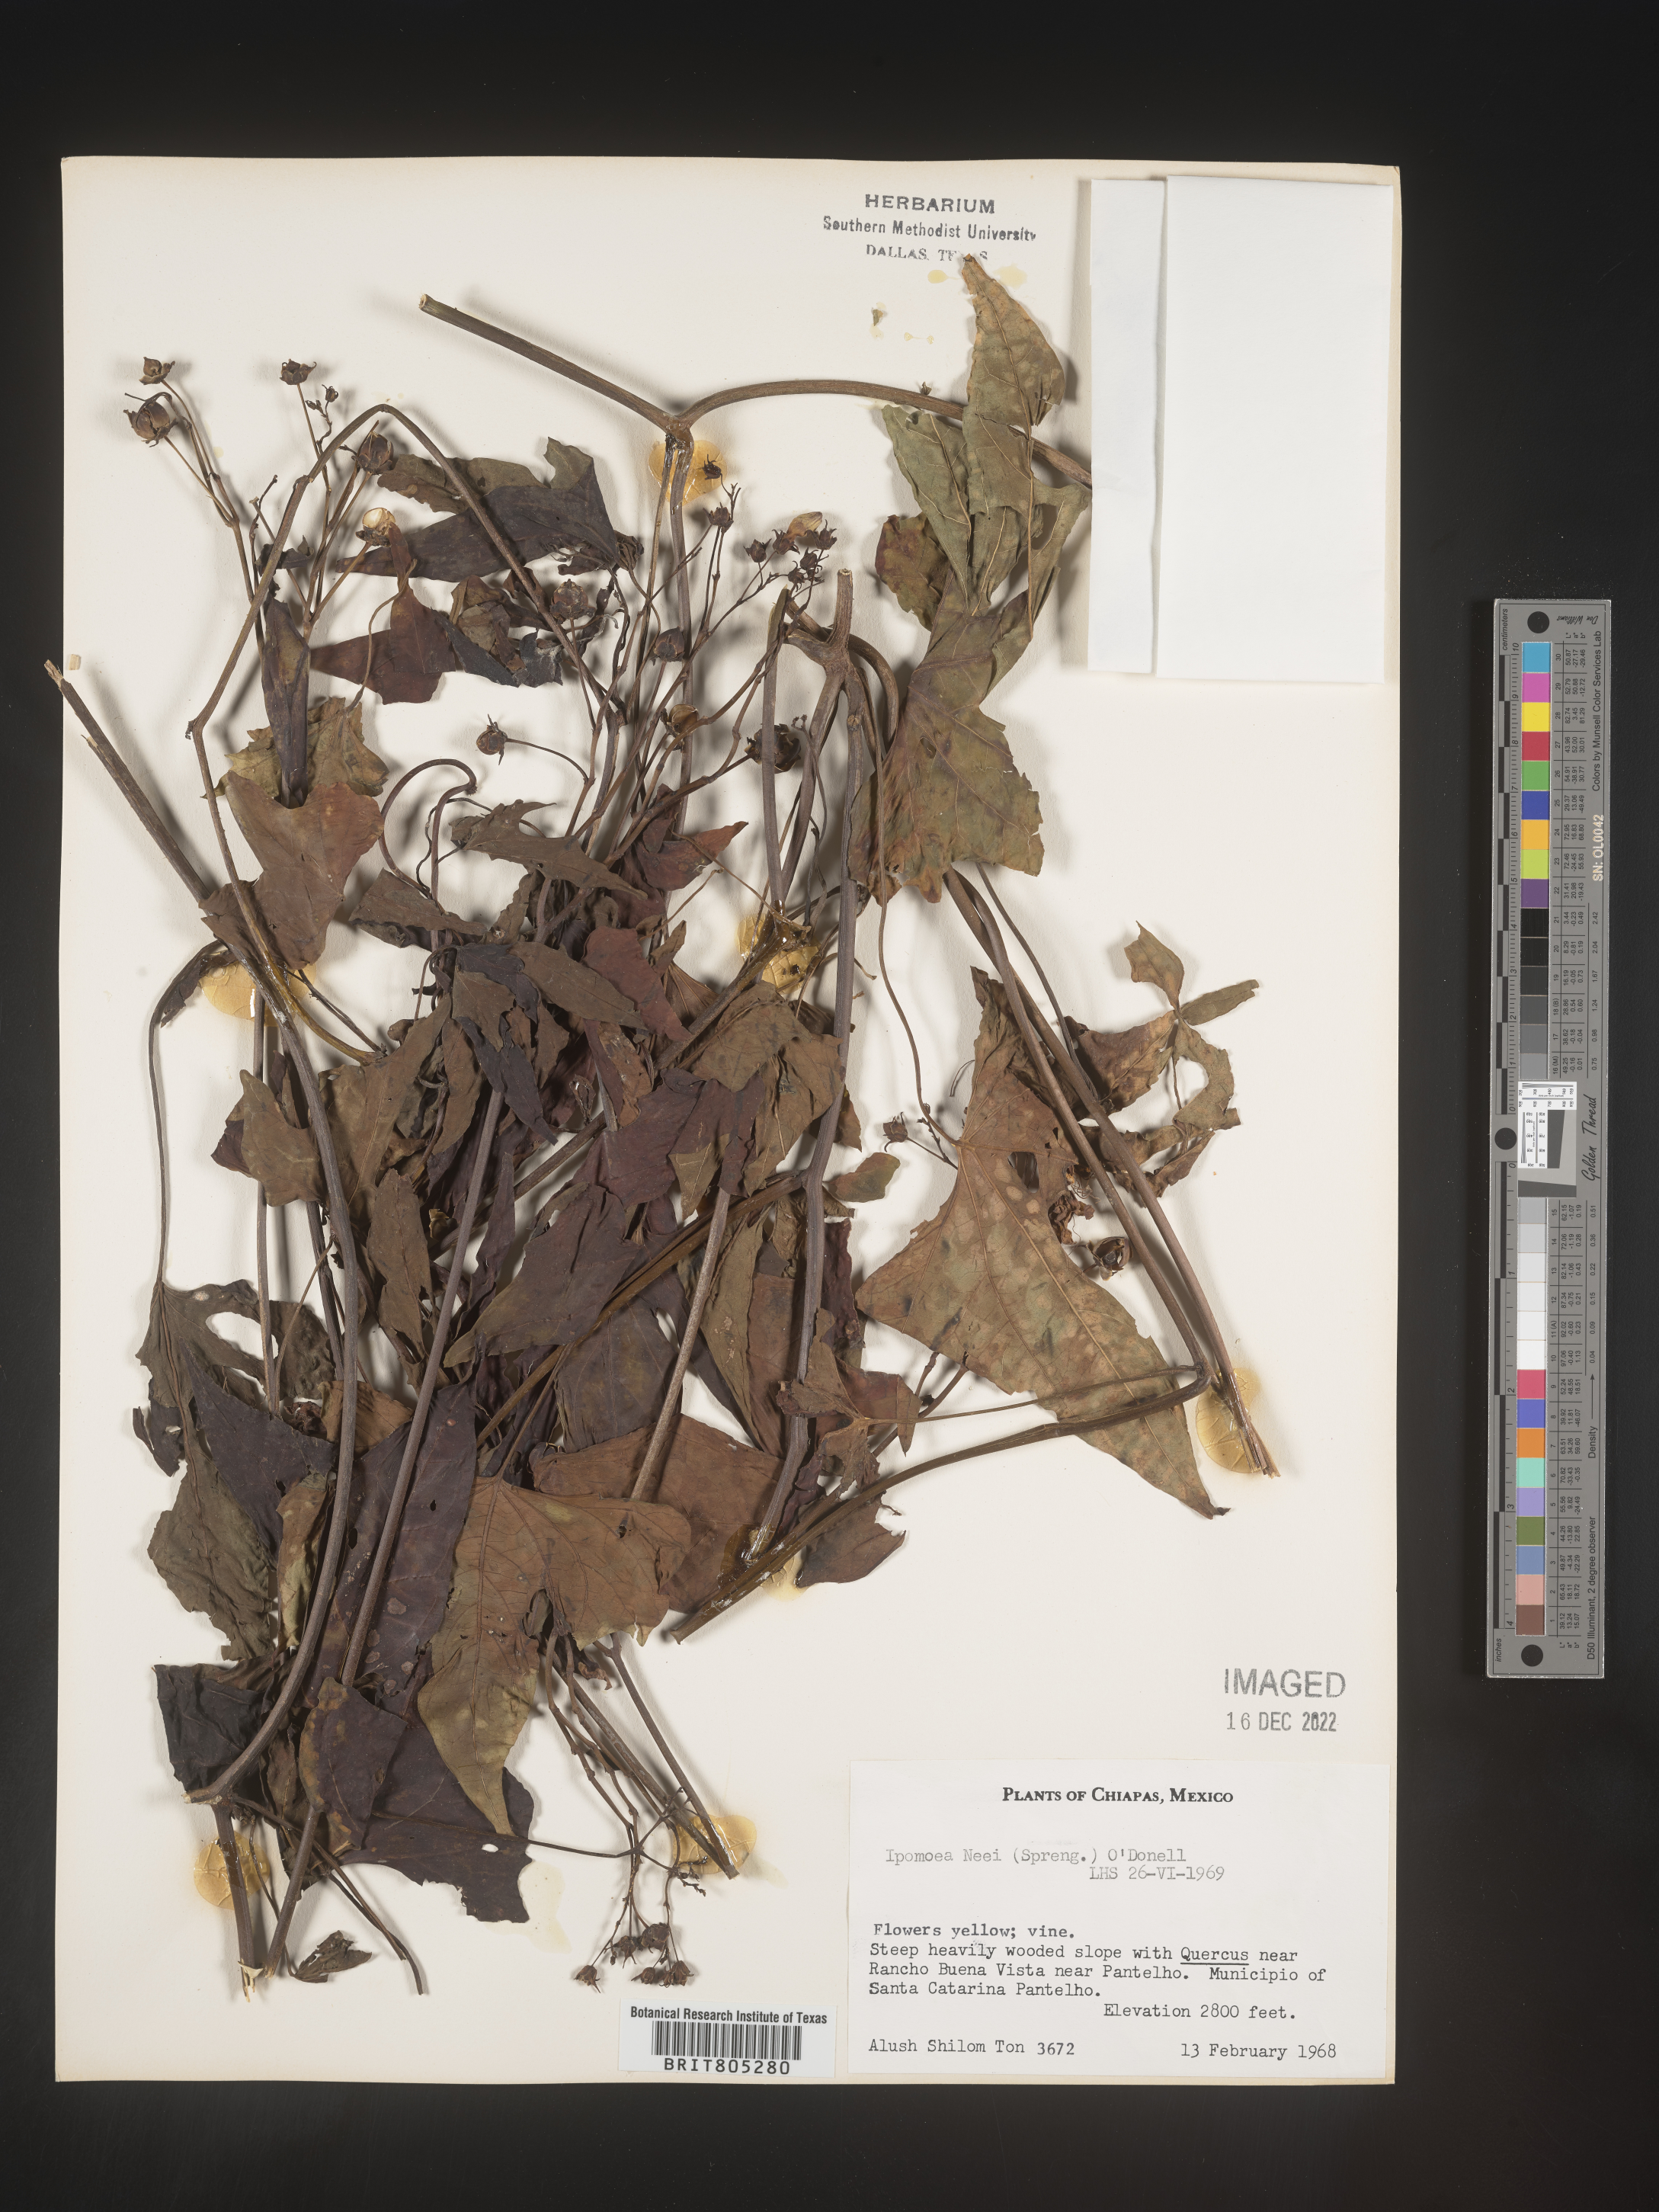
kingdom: Plantae
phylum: Tracheophyta
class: Magnoliopsida
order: Solanales
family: Convolvulaceae
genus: Ipomoea
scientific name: Ipomoea
